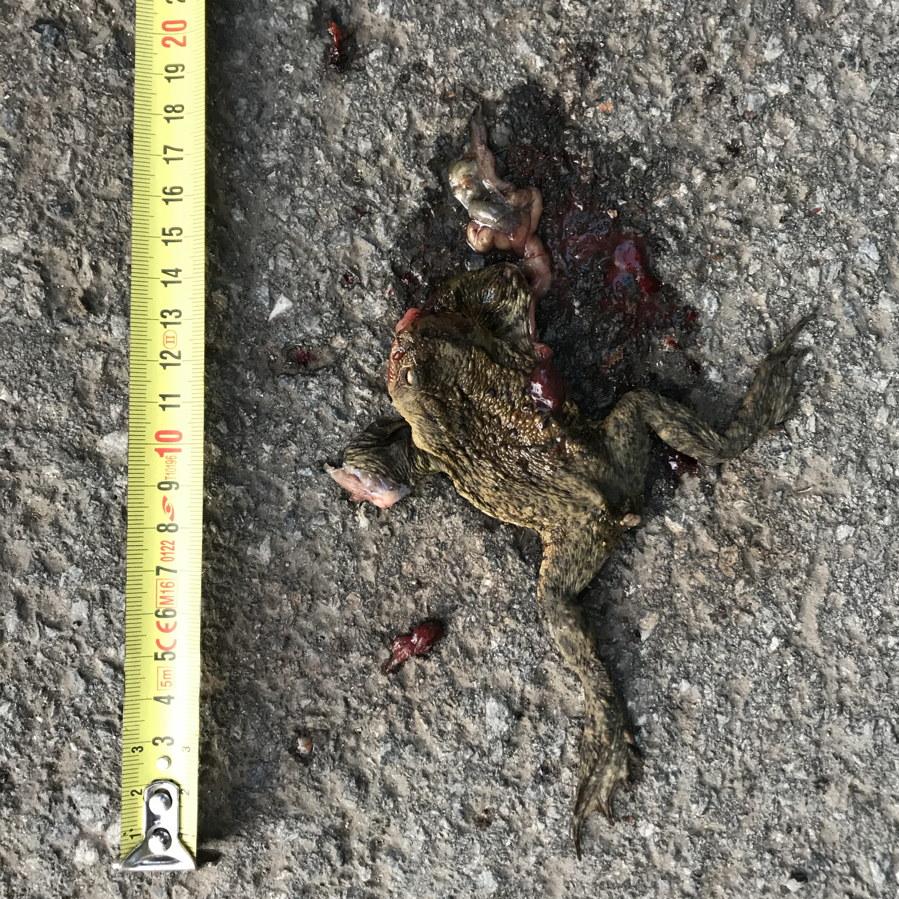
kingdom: Animalia
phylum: Chordata
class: Amphibia
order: Anura
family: Bufonidae
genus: Bufo
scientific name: Bufo bufo
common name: Common toad
